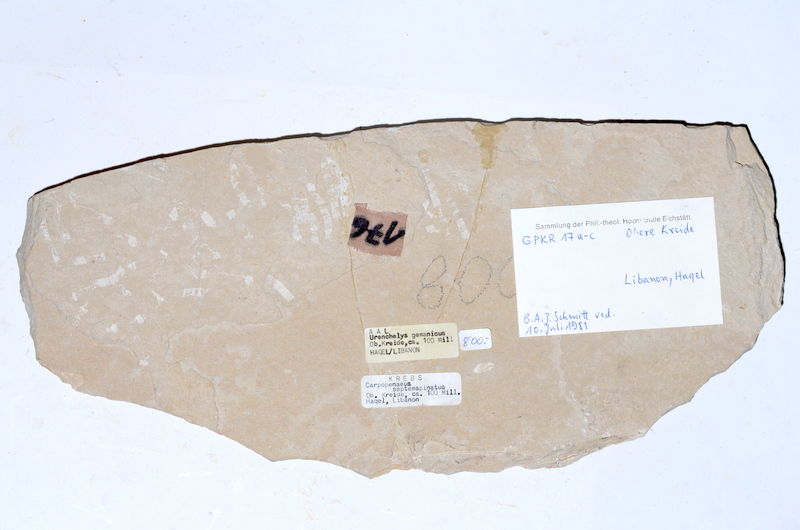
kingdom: Animalia
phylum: Chordata
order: Salmoniformes
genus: Ginsburgia
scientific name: Ginsburgia
